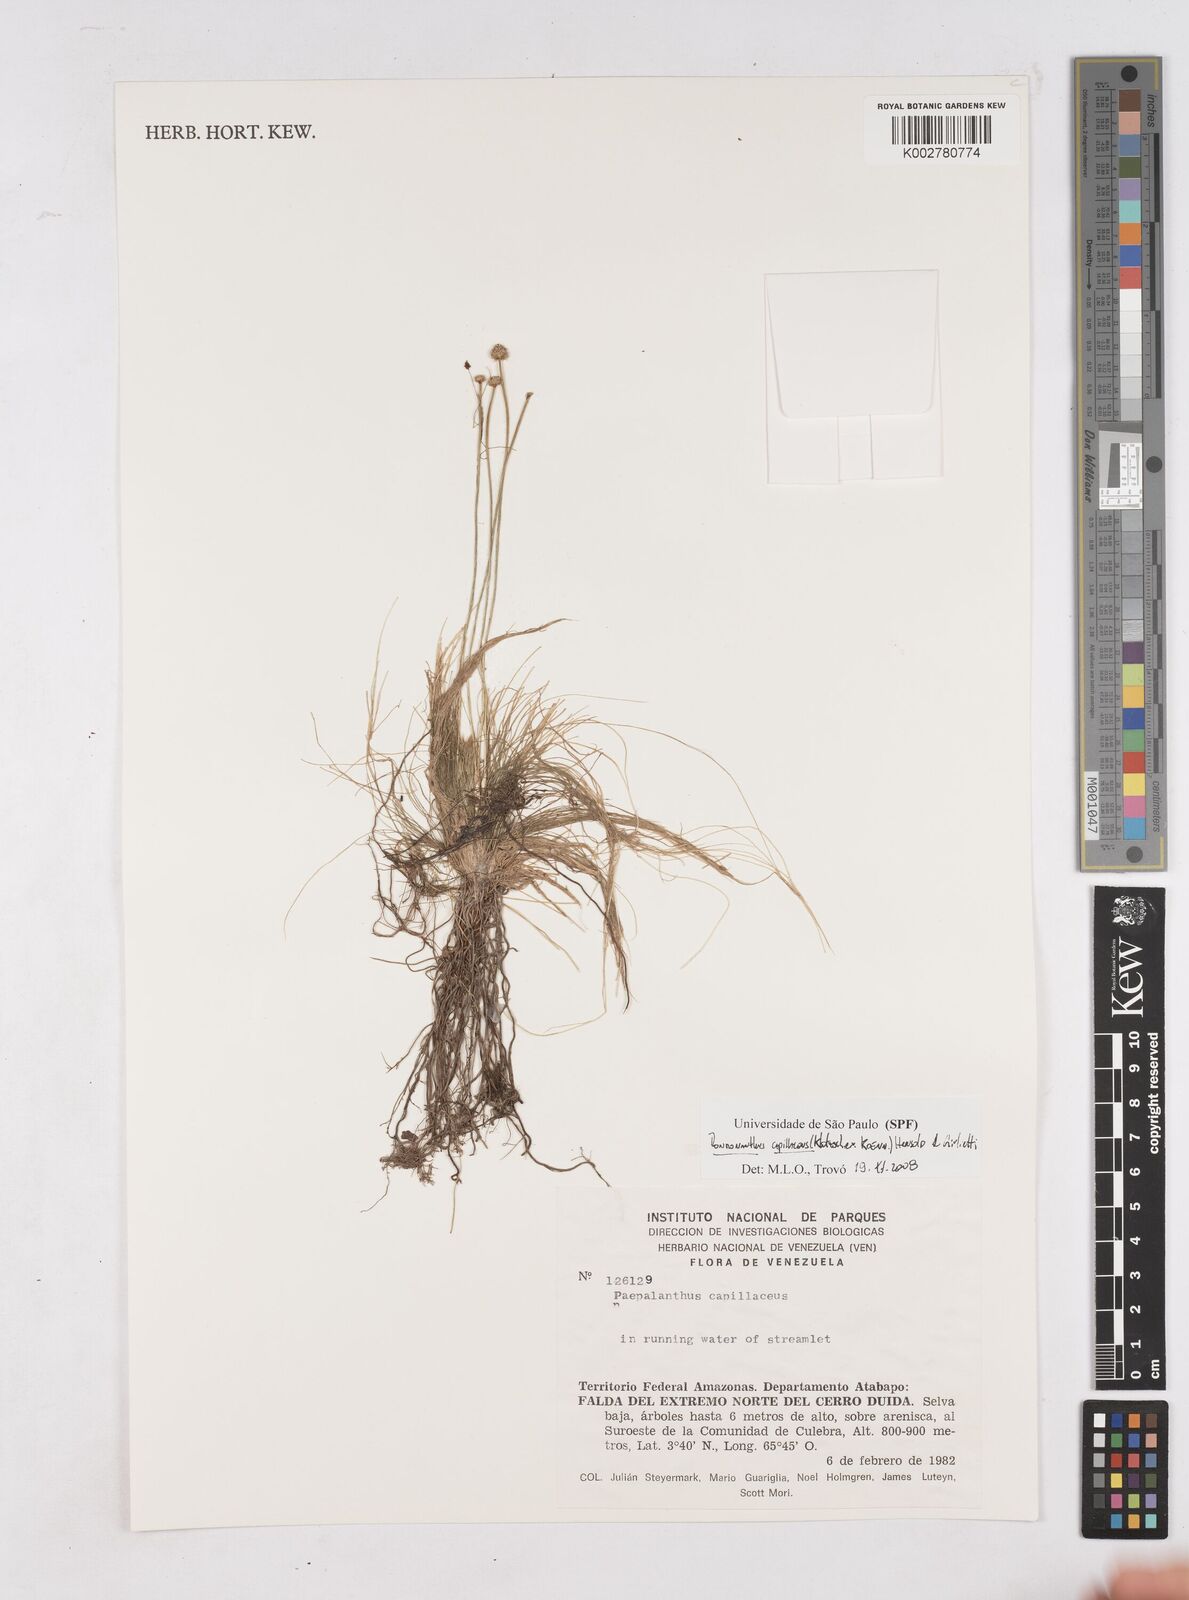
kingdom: Plantae
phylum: Tracheophyta
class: Liliopsida
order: Poales
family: Eriocaulaceae
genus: Rondonanthus
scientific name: Rondonanthus capillaceus
